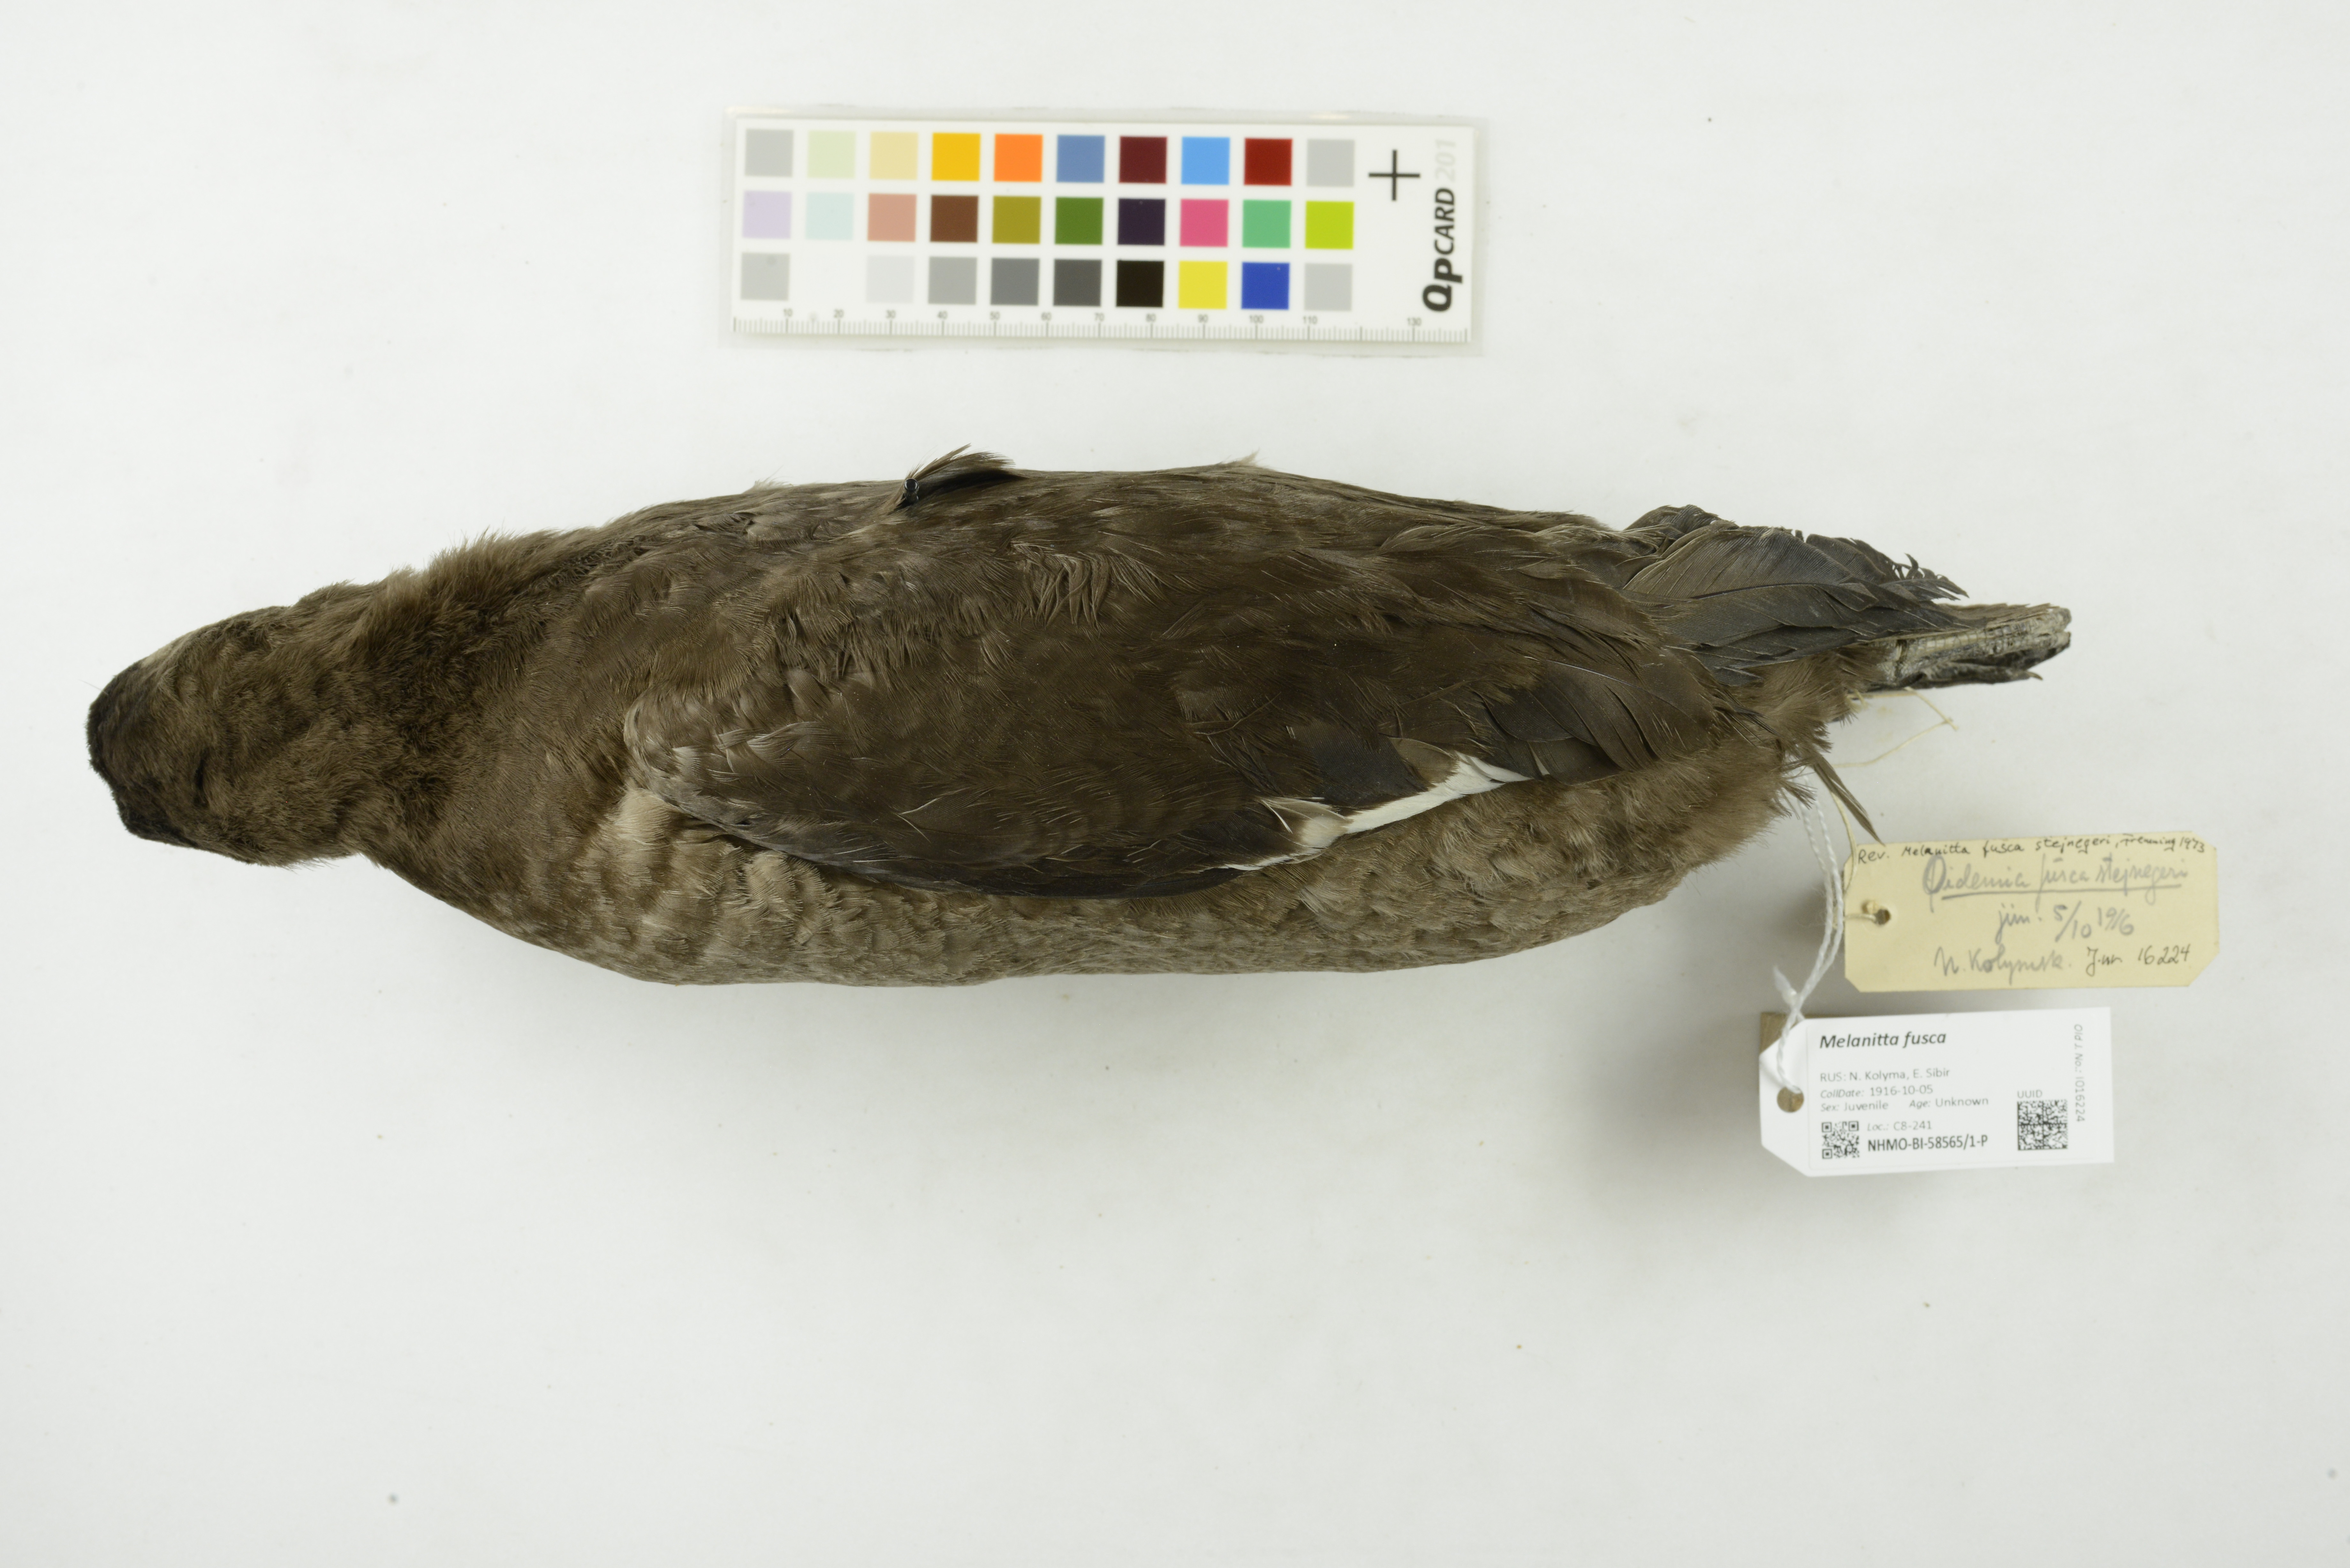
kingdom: Animalia
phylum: Chordata
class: Aves
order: Anseriformes
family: Anatidae
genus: Melanitta
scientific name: Melanitta fusca
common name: Velvet scoter
